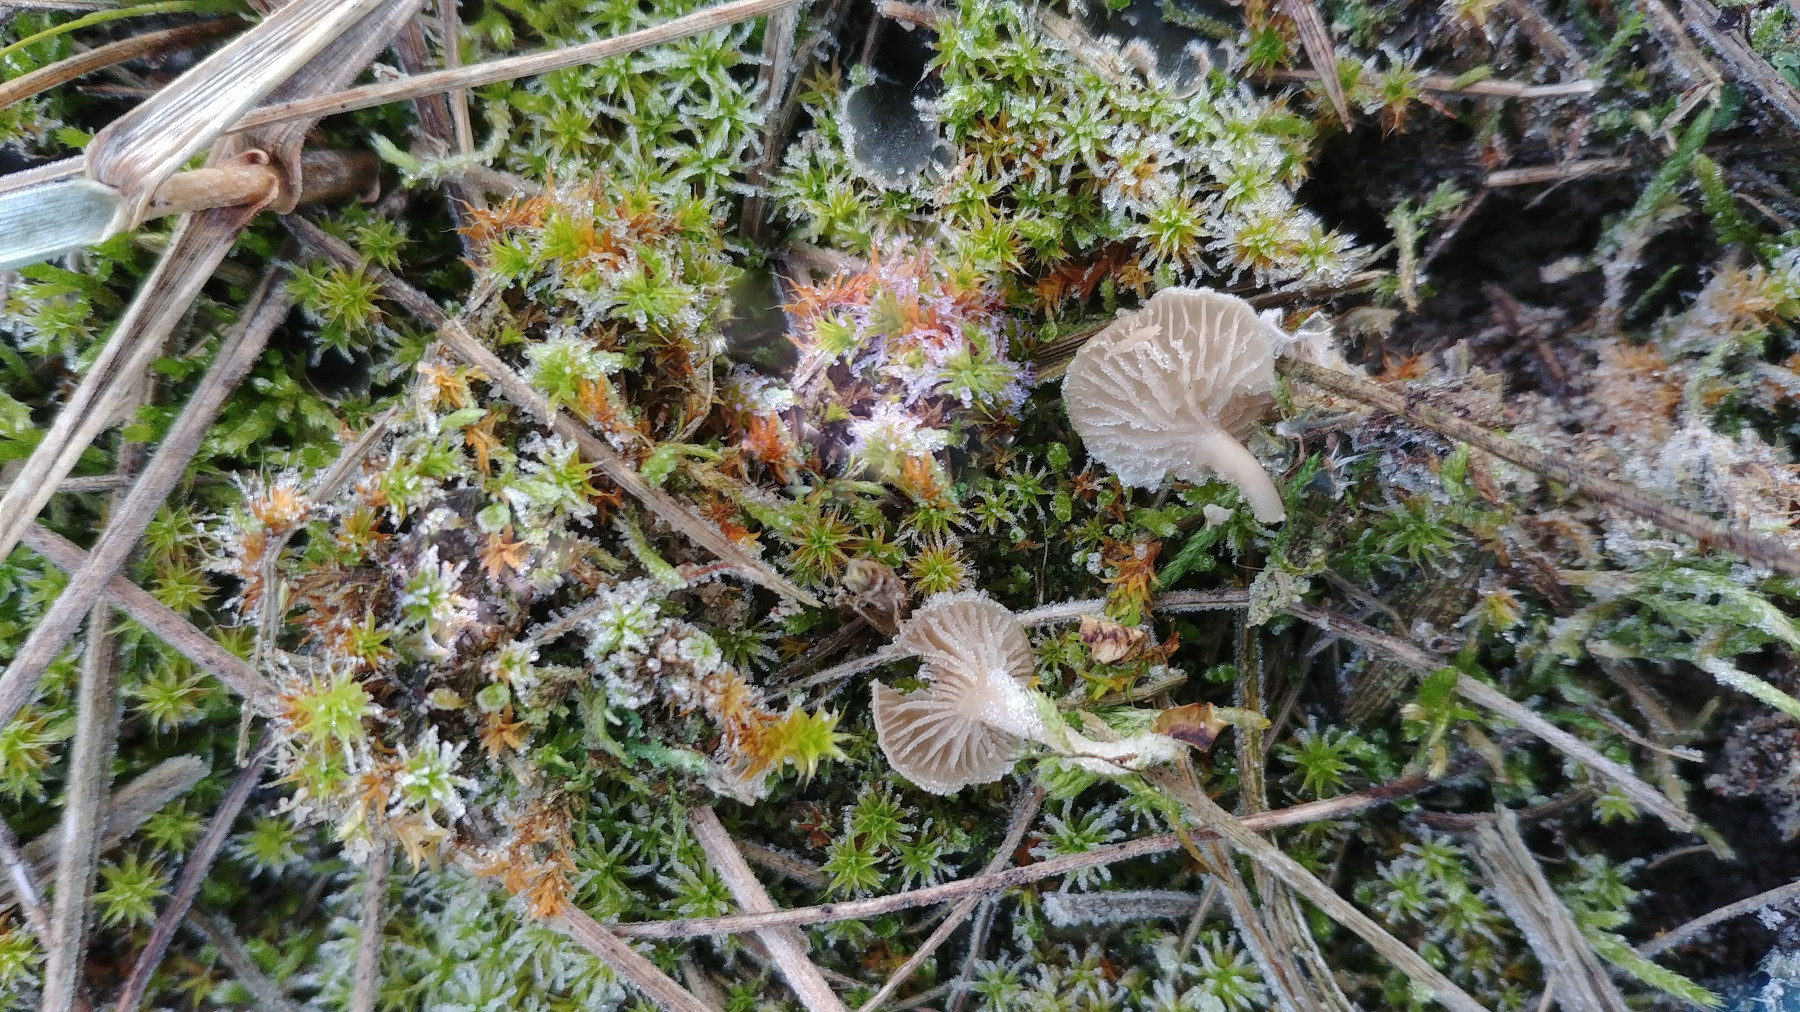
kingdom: Fungi
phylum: Basidiomycota
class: Agaricomycetes
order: Agaricales
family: Hygrophoraceae
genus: Arrhenia
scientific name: Arrhenia peltigerina
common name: skjoldlav-fontænehat
